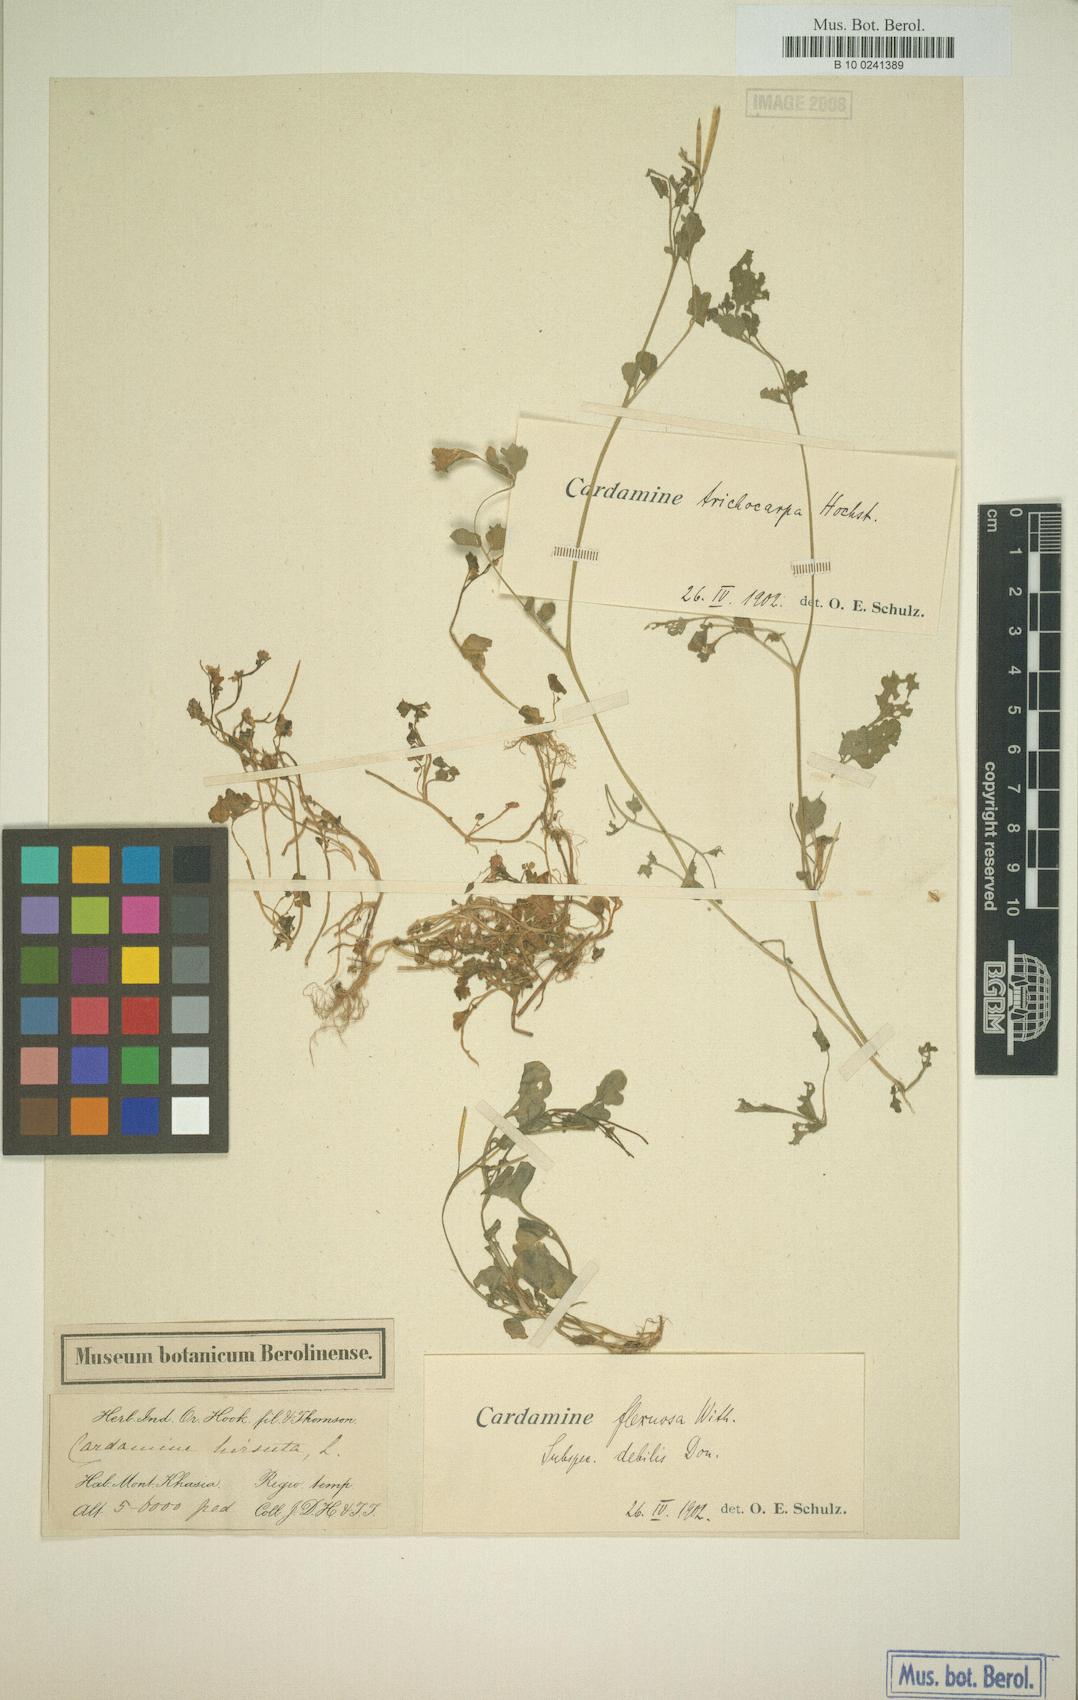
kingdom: Plantae
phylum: Tracheophyta
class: Magnoliopsida
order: Brassicales
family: Brassicaceae
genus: Cardamine
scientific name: Cardamine occulta
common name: Asian wavy bittercress
